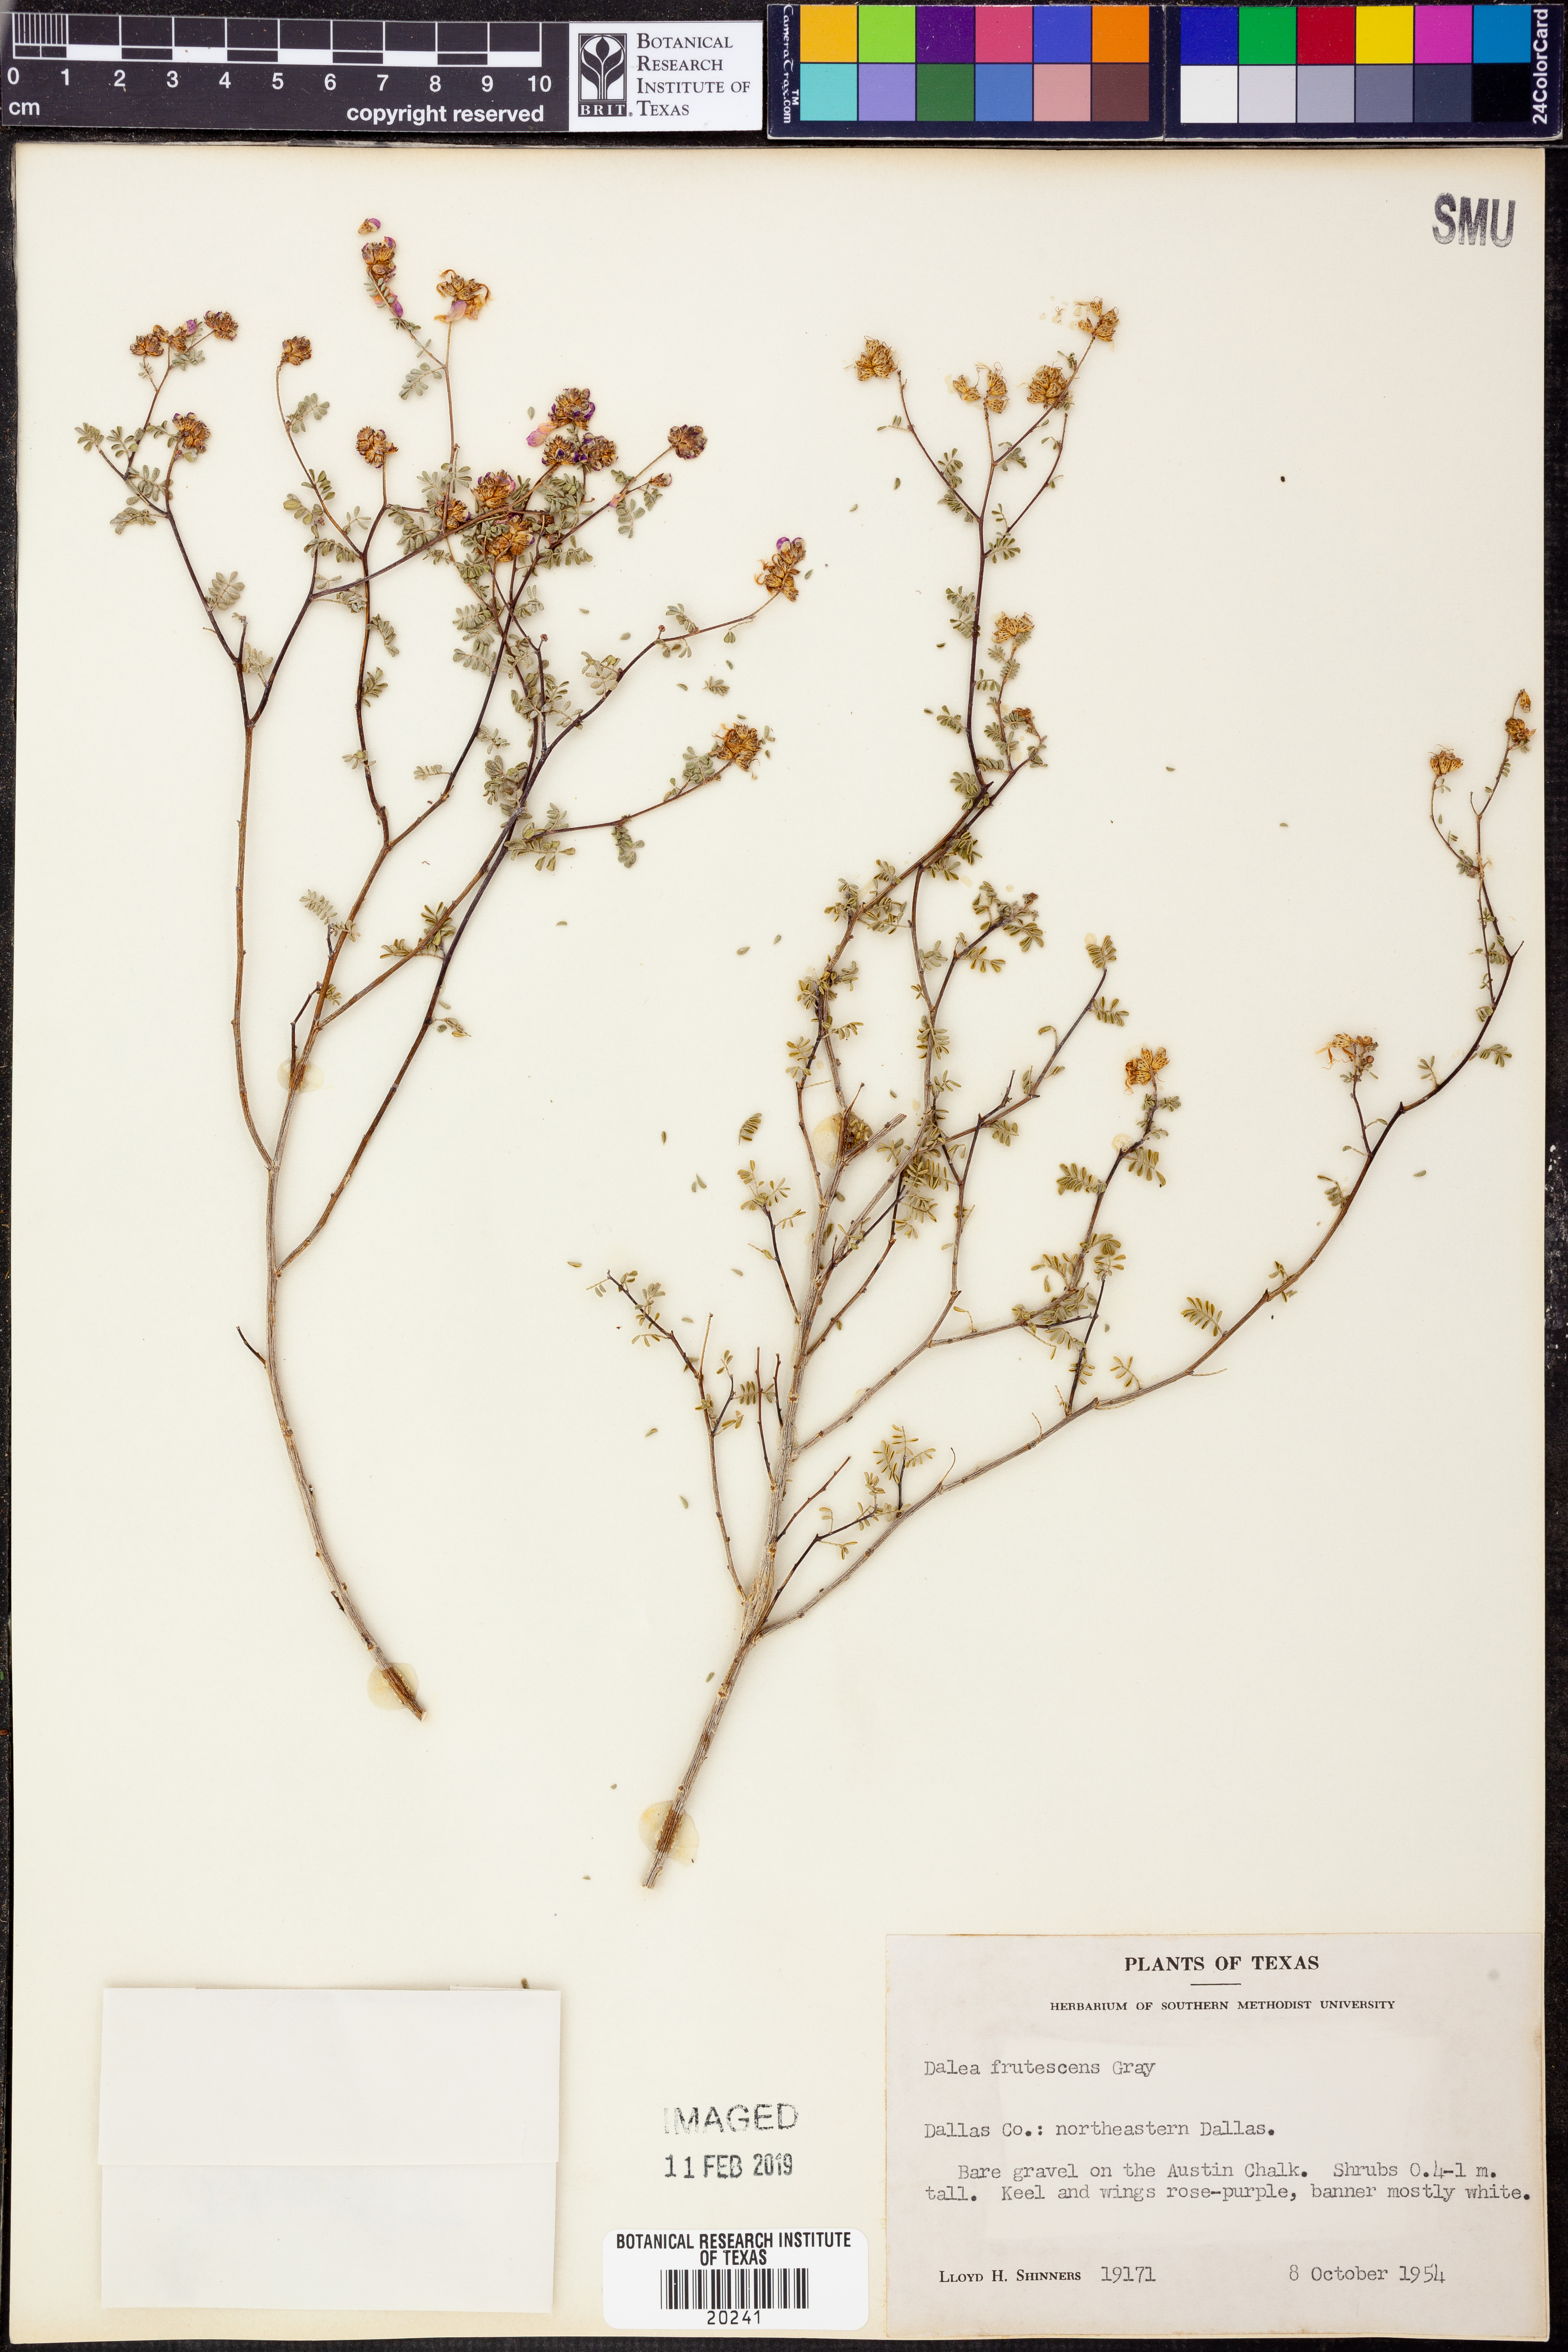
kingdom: Plantae
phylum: Tracheophyta
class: Magnoliopsida
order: Fabales
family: Fabaceae
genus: Dalea
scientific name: Dalea frutescens
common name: Black dalea
